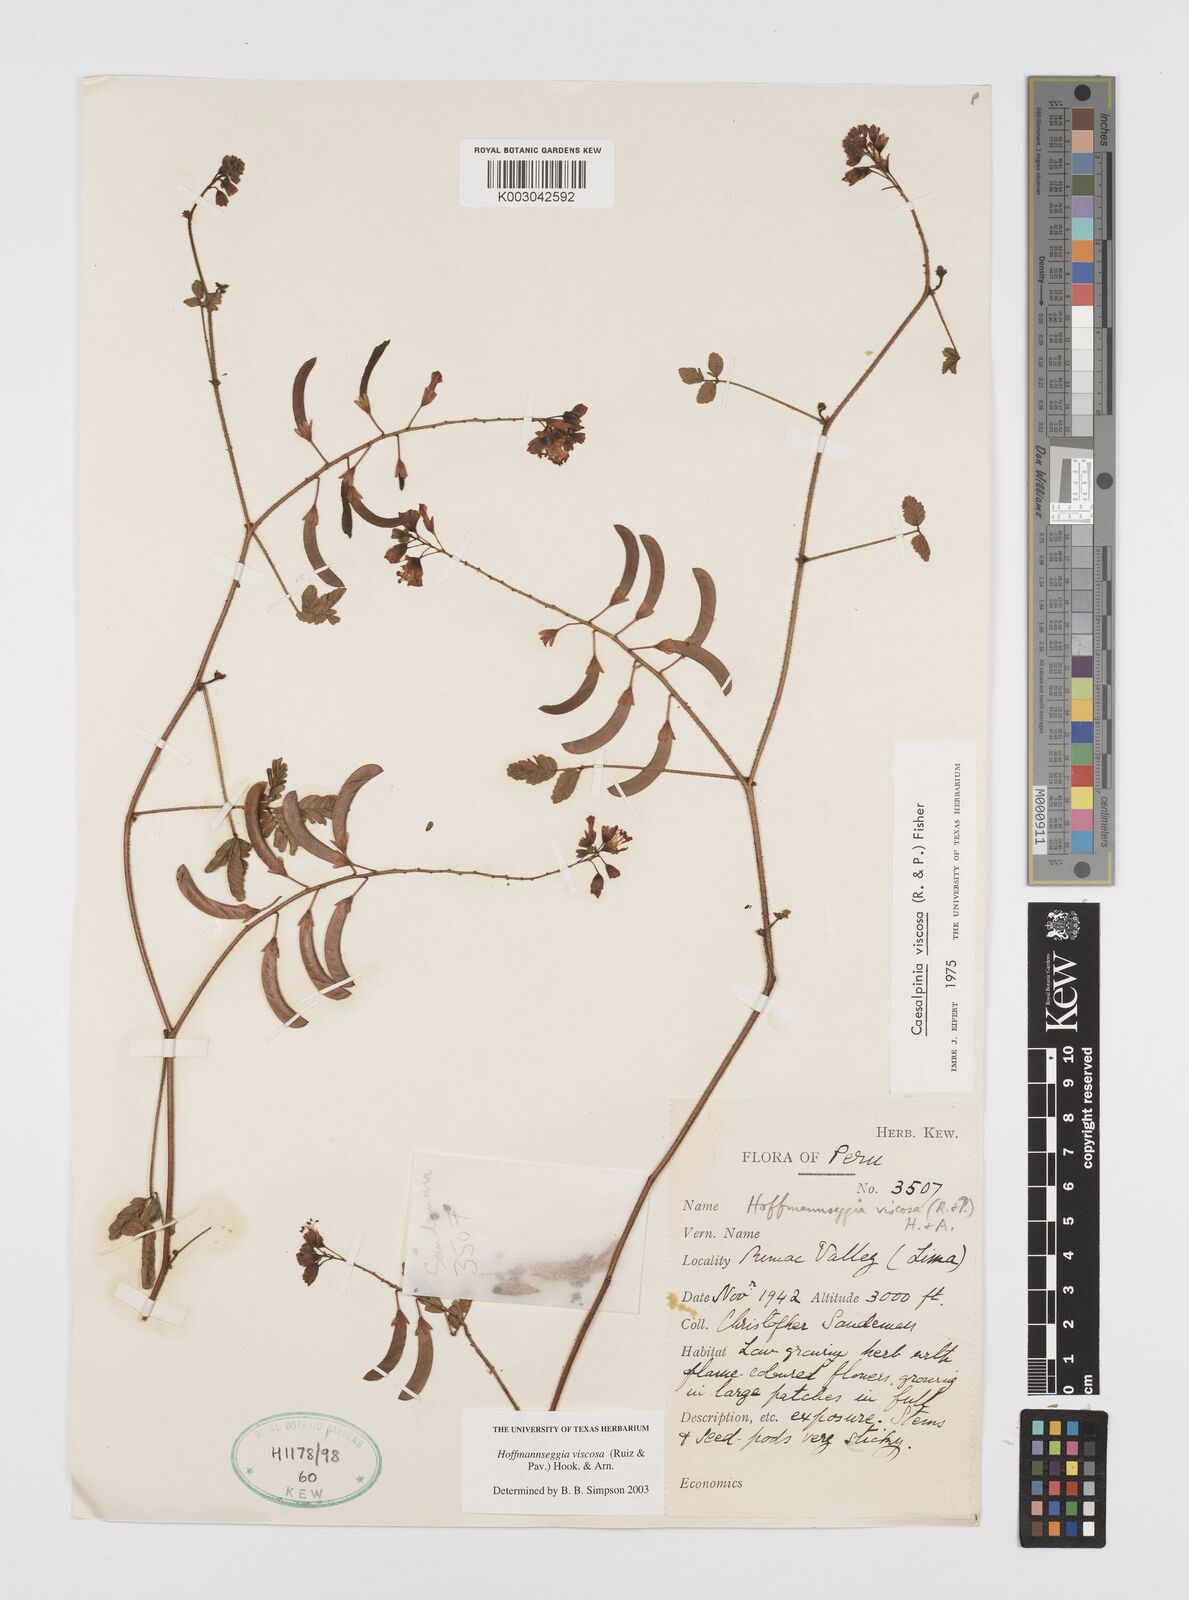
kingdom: Plantae
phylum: Tracheophyta
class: Magnoliopsida
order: Fabales
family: Fabaceae
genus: Hoffmannseggia
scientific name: Hoffmannseggia viscosa
